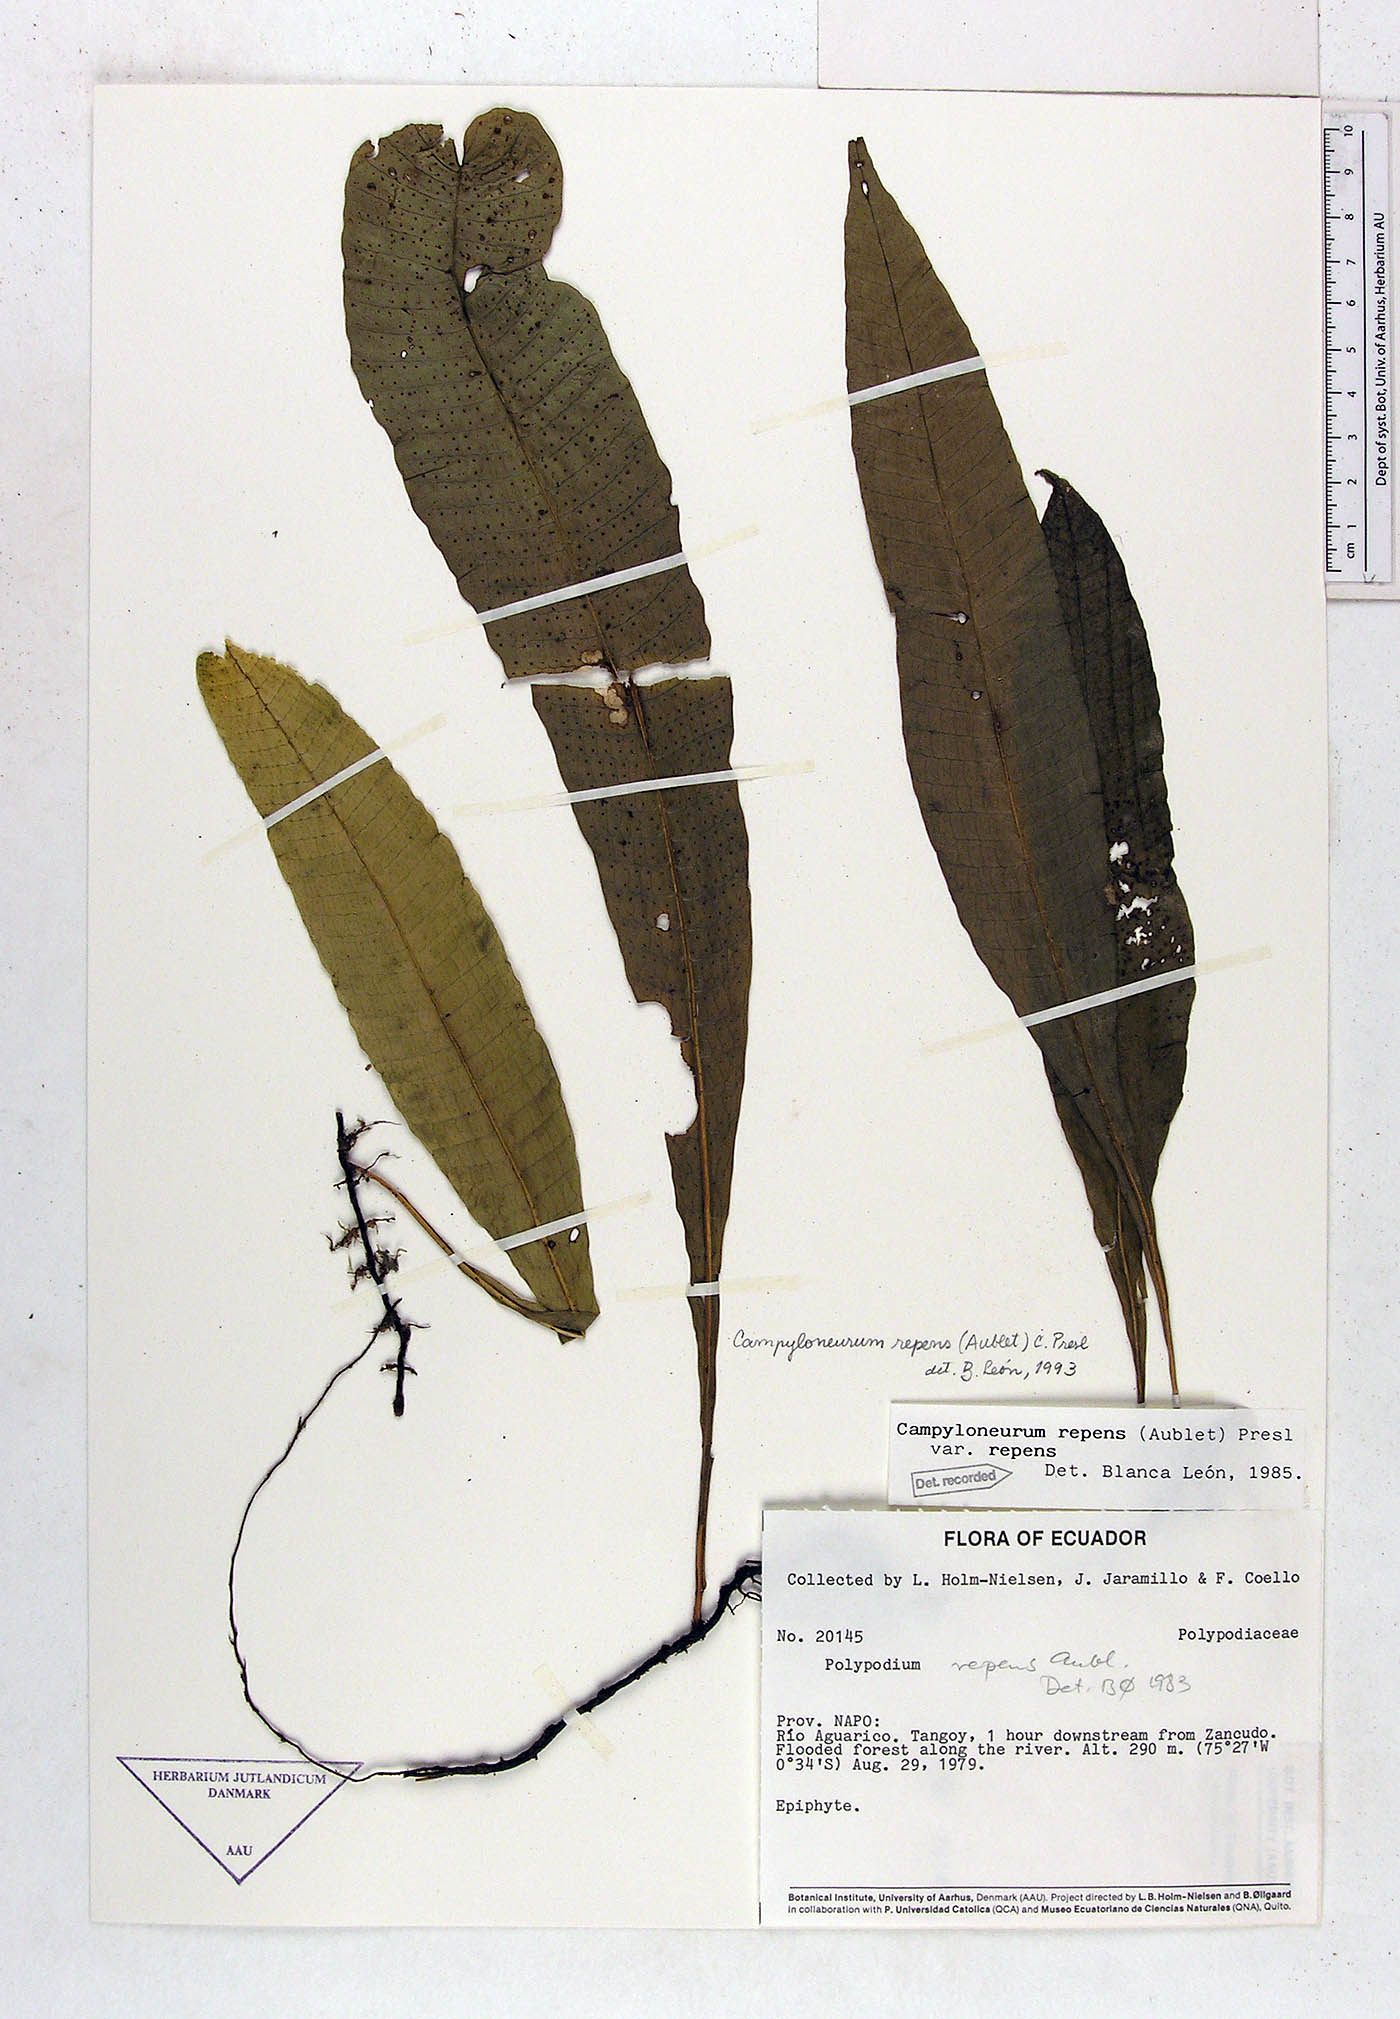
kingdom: Plantae
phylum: Tracheophyta
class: Polypodiopsida
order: Polypodiales
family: Polypodiaceae
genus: Campyloneurum
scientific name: Campyloneurum repens
